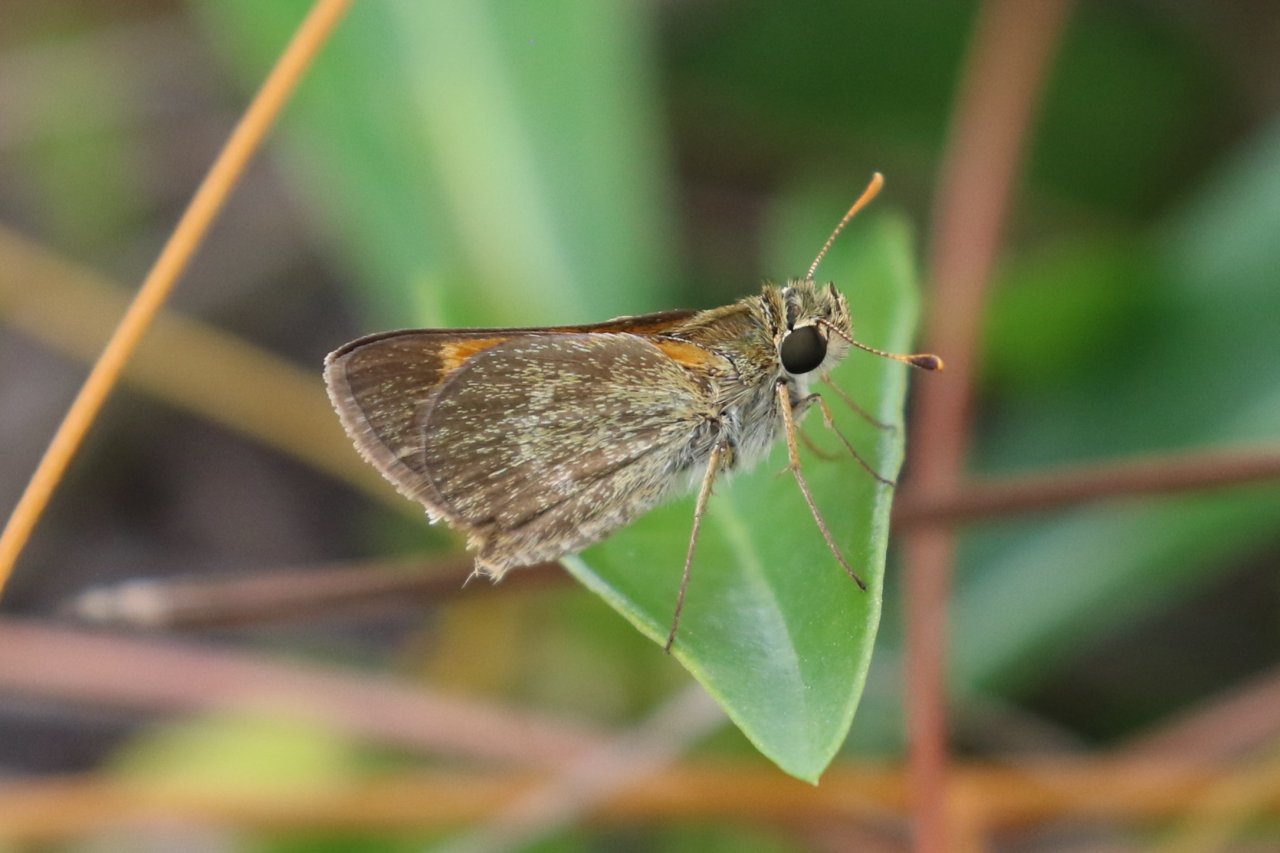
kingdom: Animalia
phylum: Arthropoda
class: Insecta
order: Lepidoptera
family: Hesperiidae
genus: Polites
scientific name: Polites baracoa
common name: Baracoa Skipper
